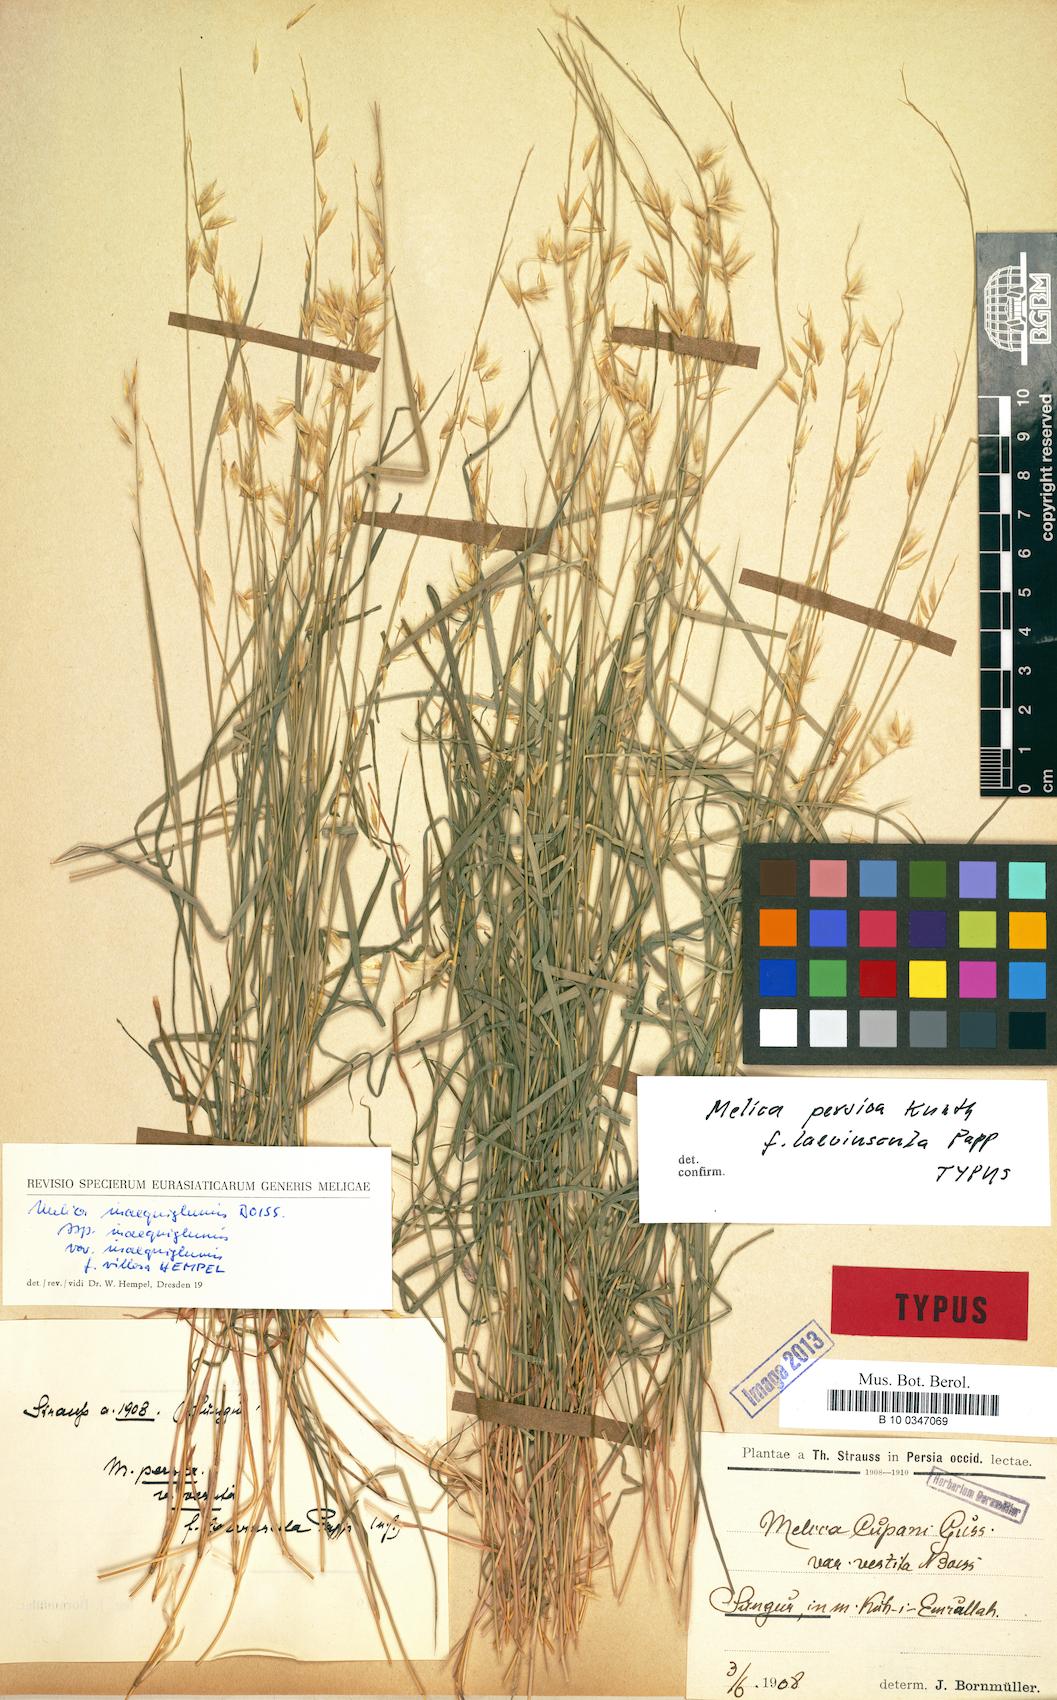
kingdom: Plantae
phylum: Tracheophyta
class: Liliopsida
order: Poales
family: Poaceae
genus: Melica
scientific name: Melica persica
